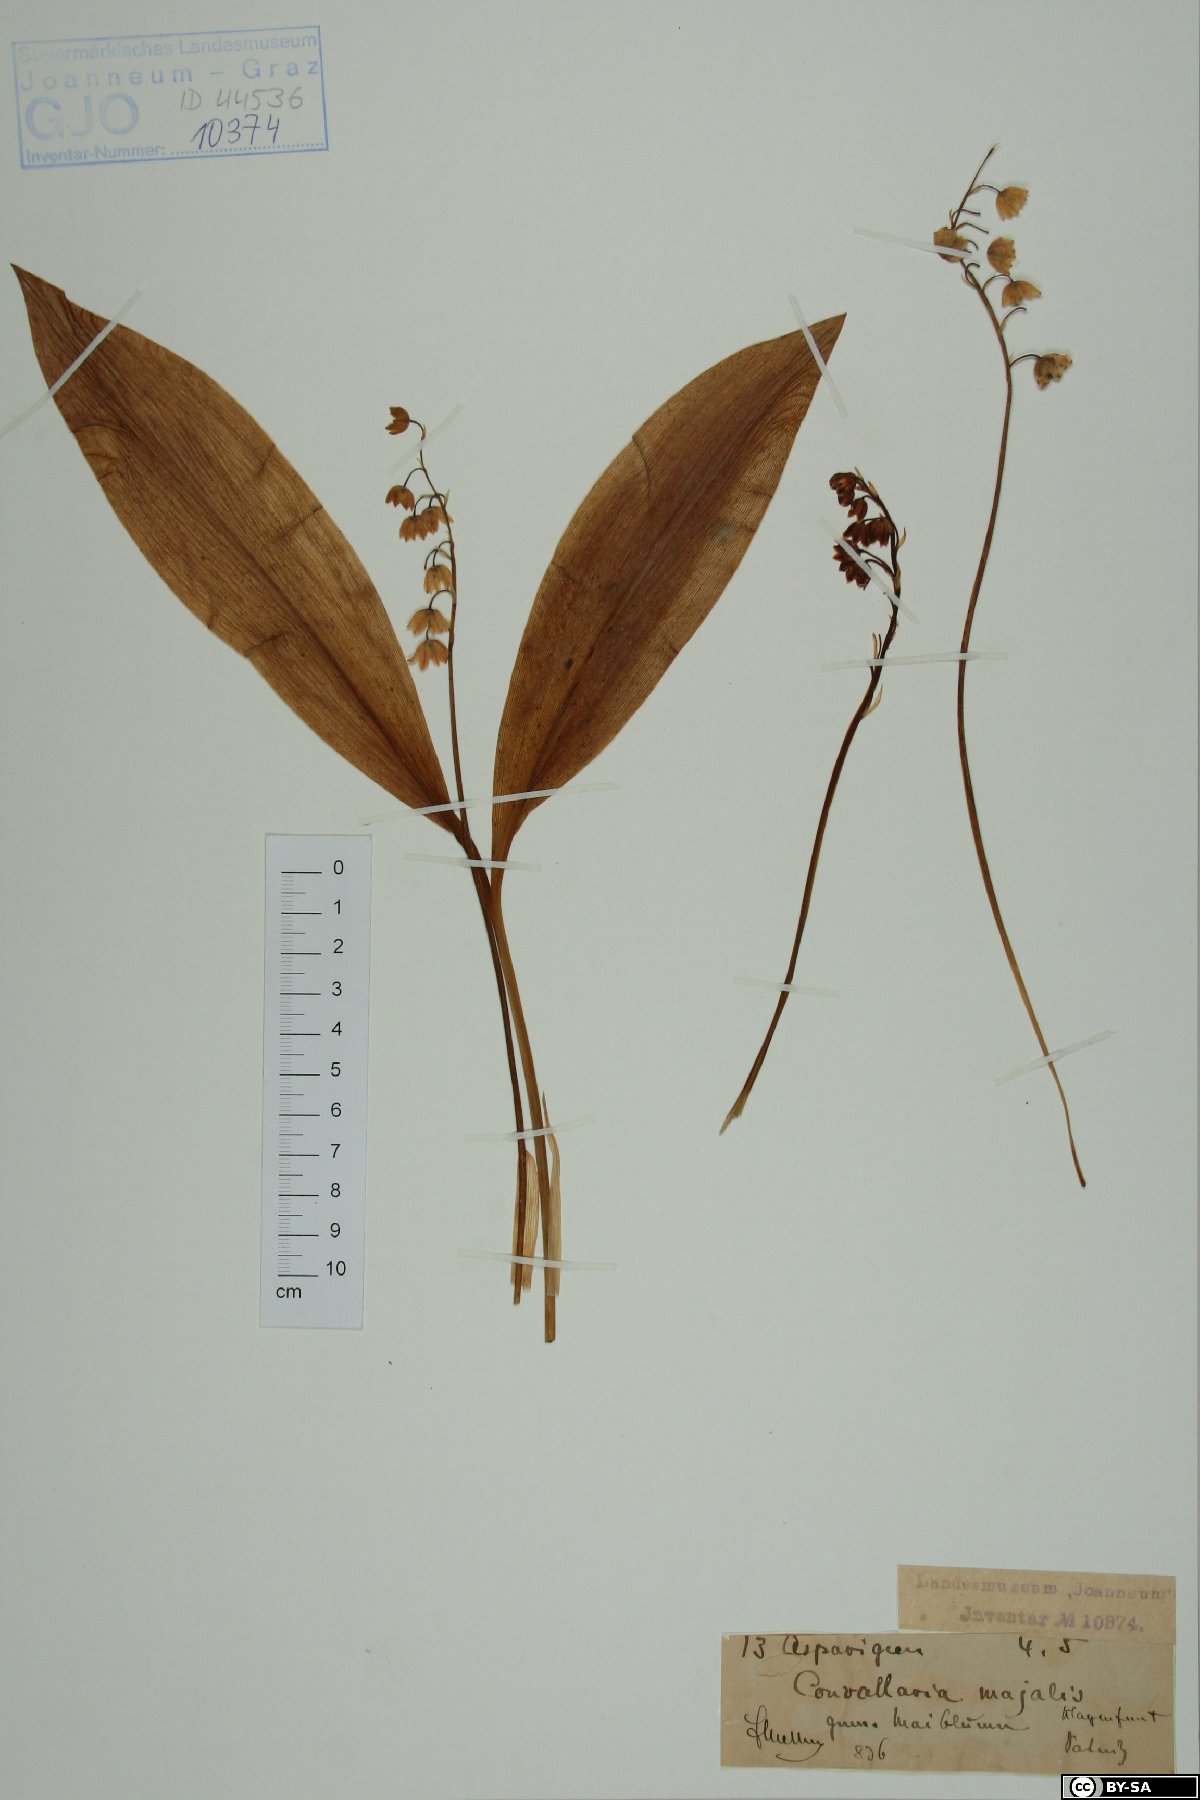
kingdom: Plantae
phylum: Tracheophyta
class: Liliopsida
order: Asparagales
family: Asparagaceae
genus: Convallaria
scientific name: Convallaria majalis
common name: Lily-of-the-valley
